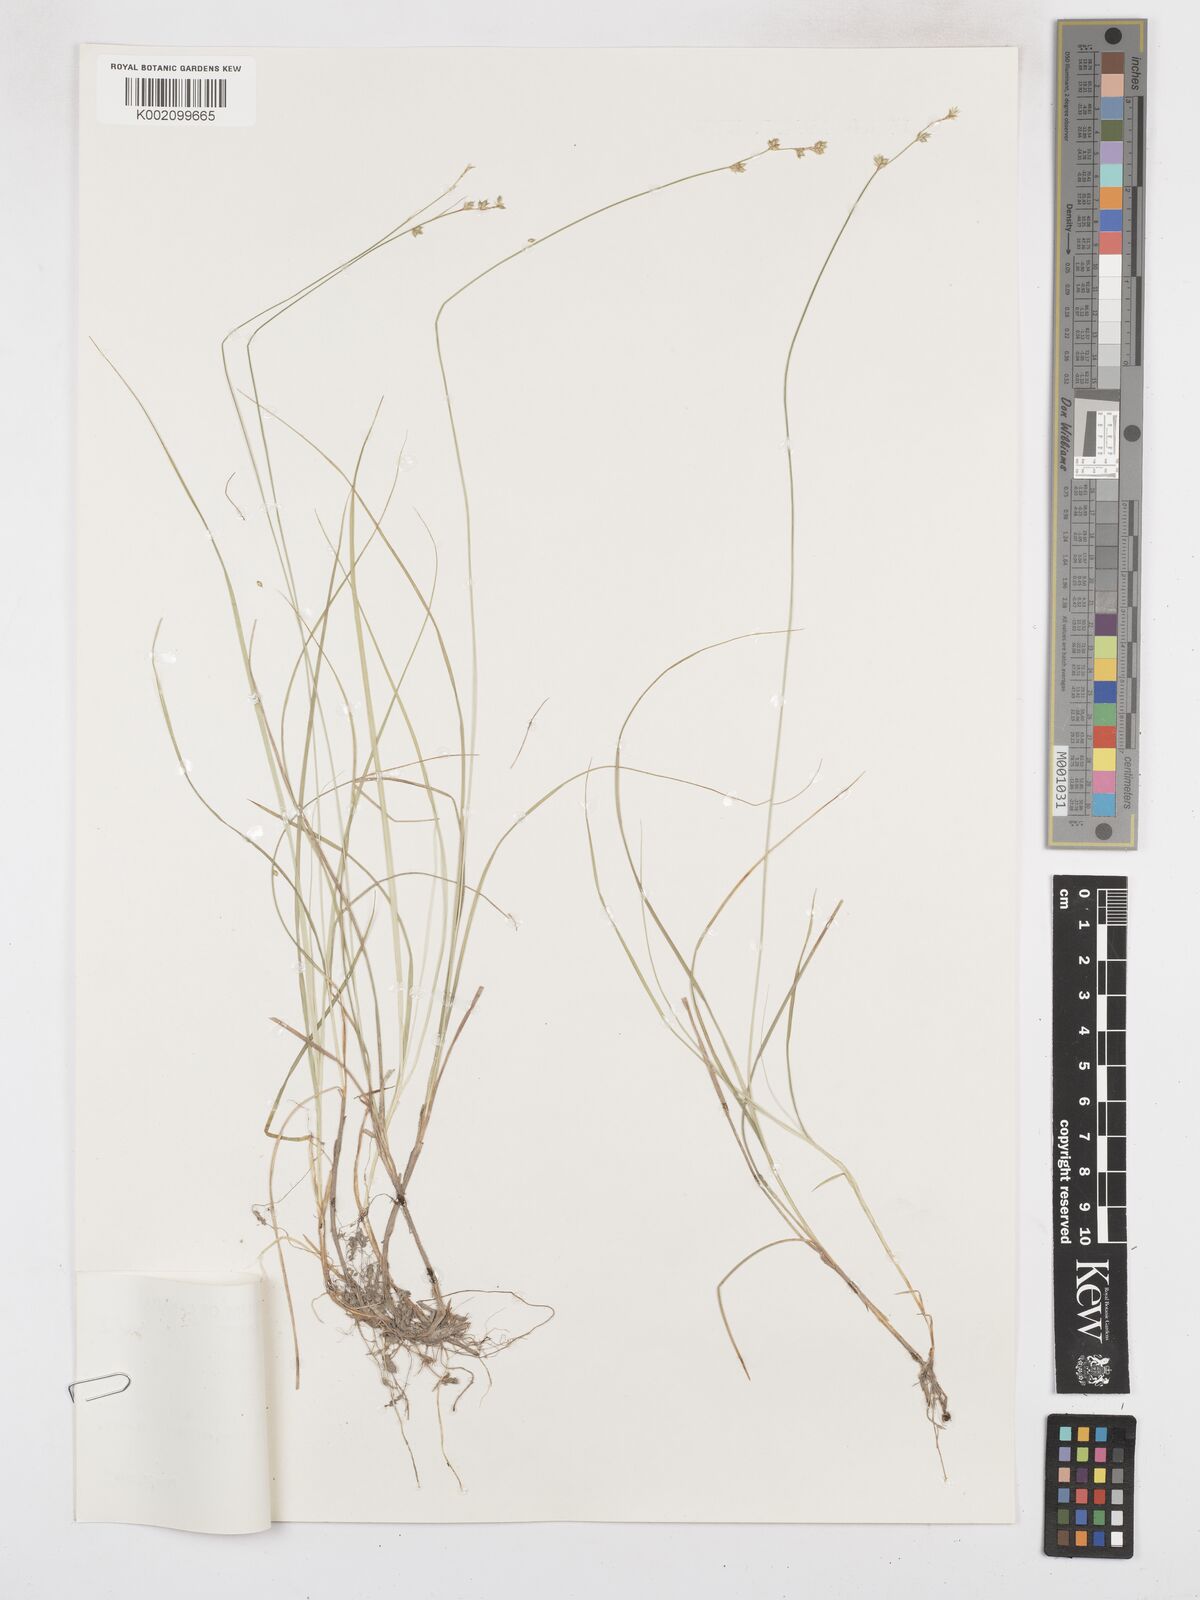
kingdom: Plantae
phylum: Tracheophyta
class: Liliopsida
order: Poales
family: Cyperaceae
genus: Carex
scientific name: Carex brunnescens
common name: Brown sedge
